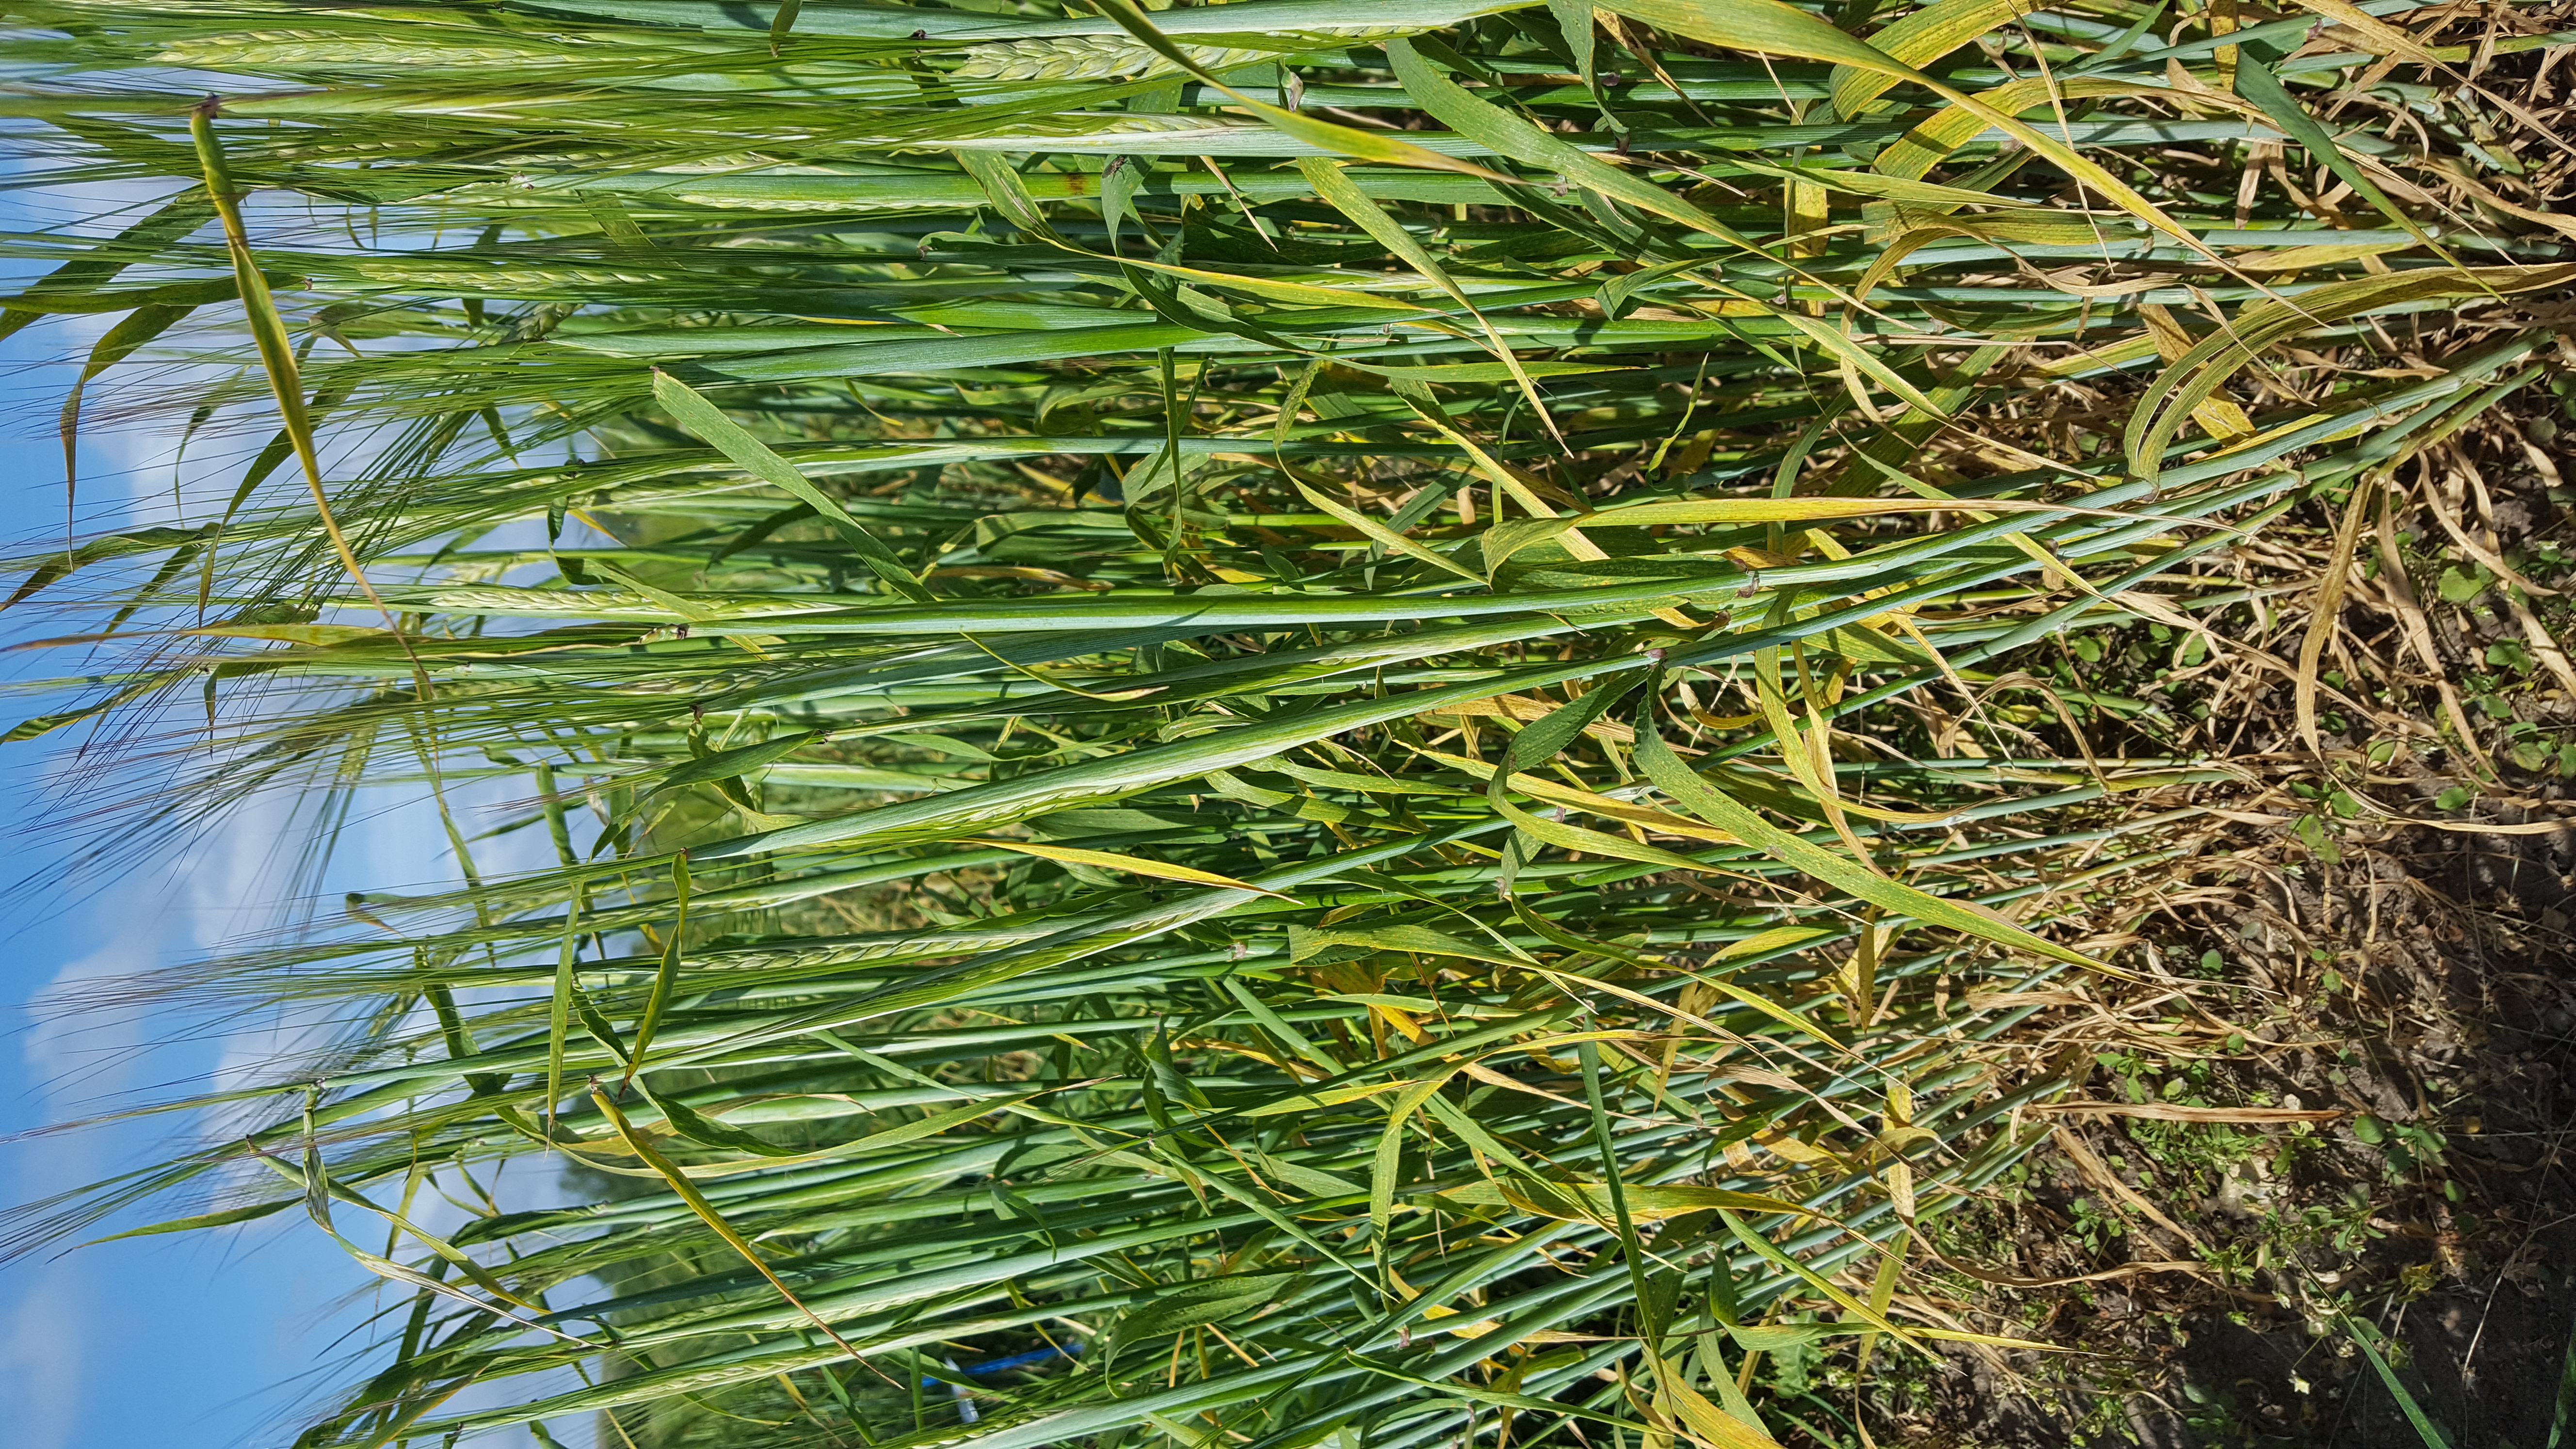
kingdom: Plantae
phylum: Tracheophyta
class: Liliopsida
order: Poales
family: Poaceae
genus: Hordeum
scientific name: Hordeum vulgare
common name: Common barley
